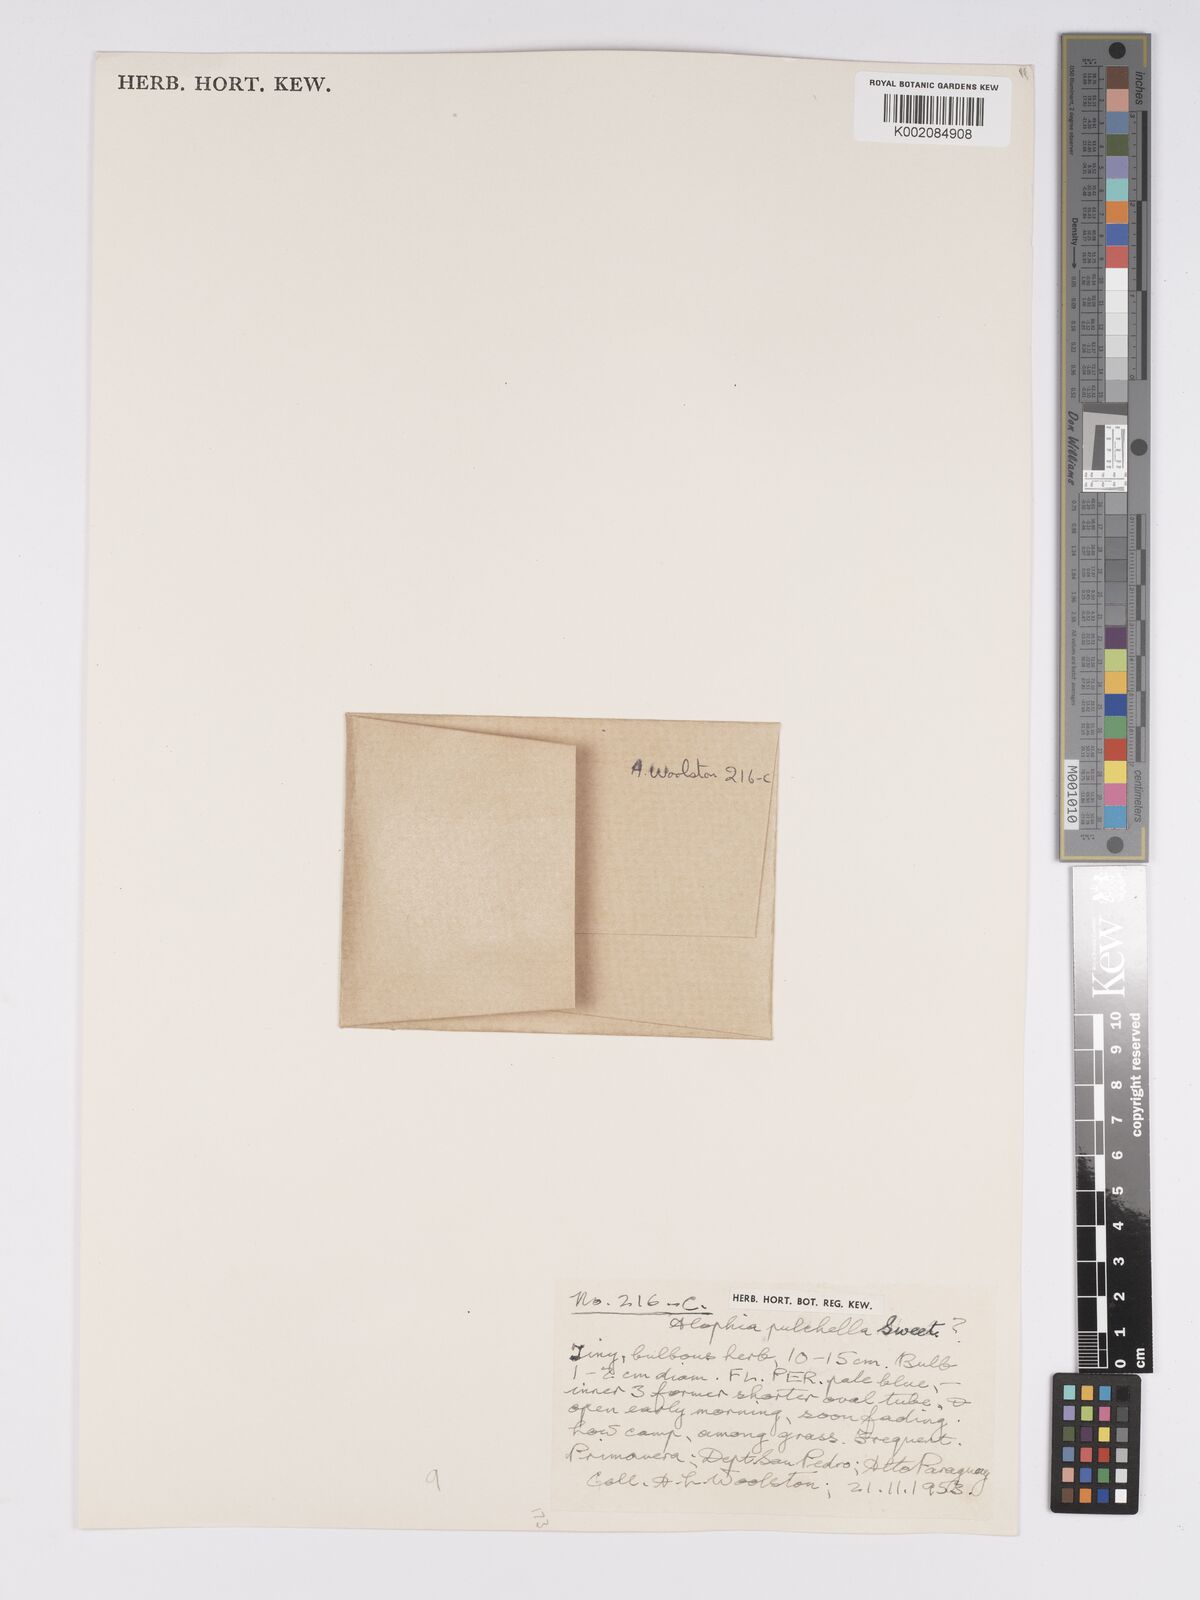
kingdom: Plantae
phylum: Tracheophyta
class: Liliopsida
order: Asparagales
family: Iridaceae
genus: Cipura
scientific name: Cipura paludosa
